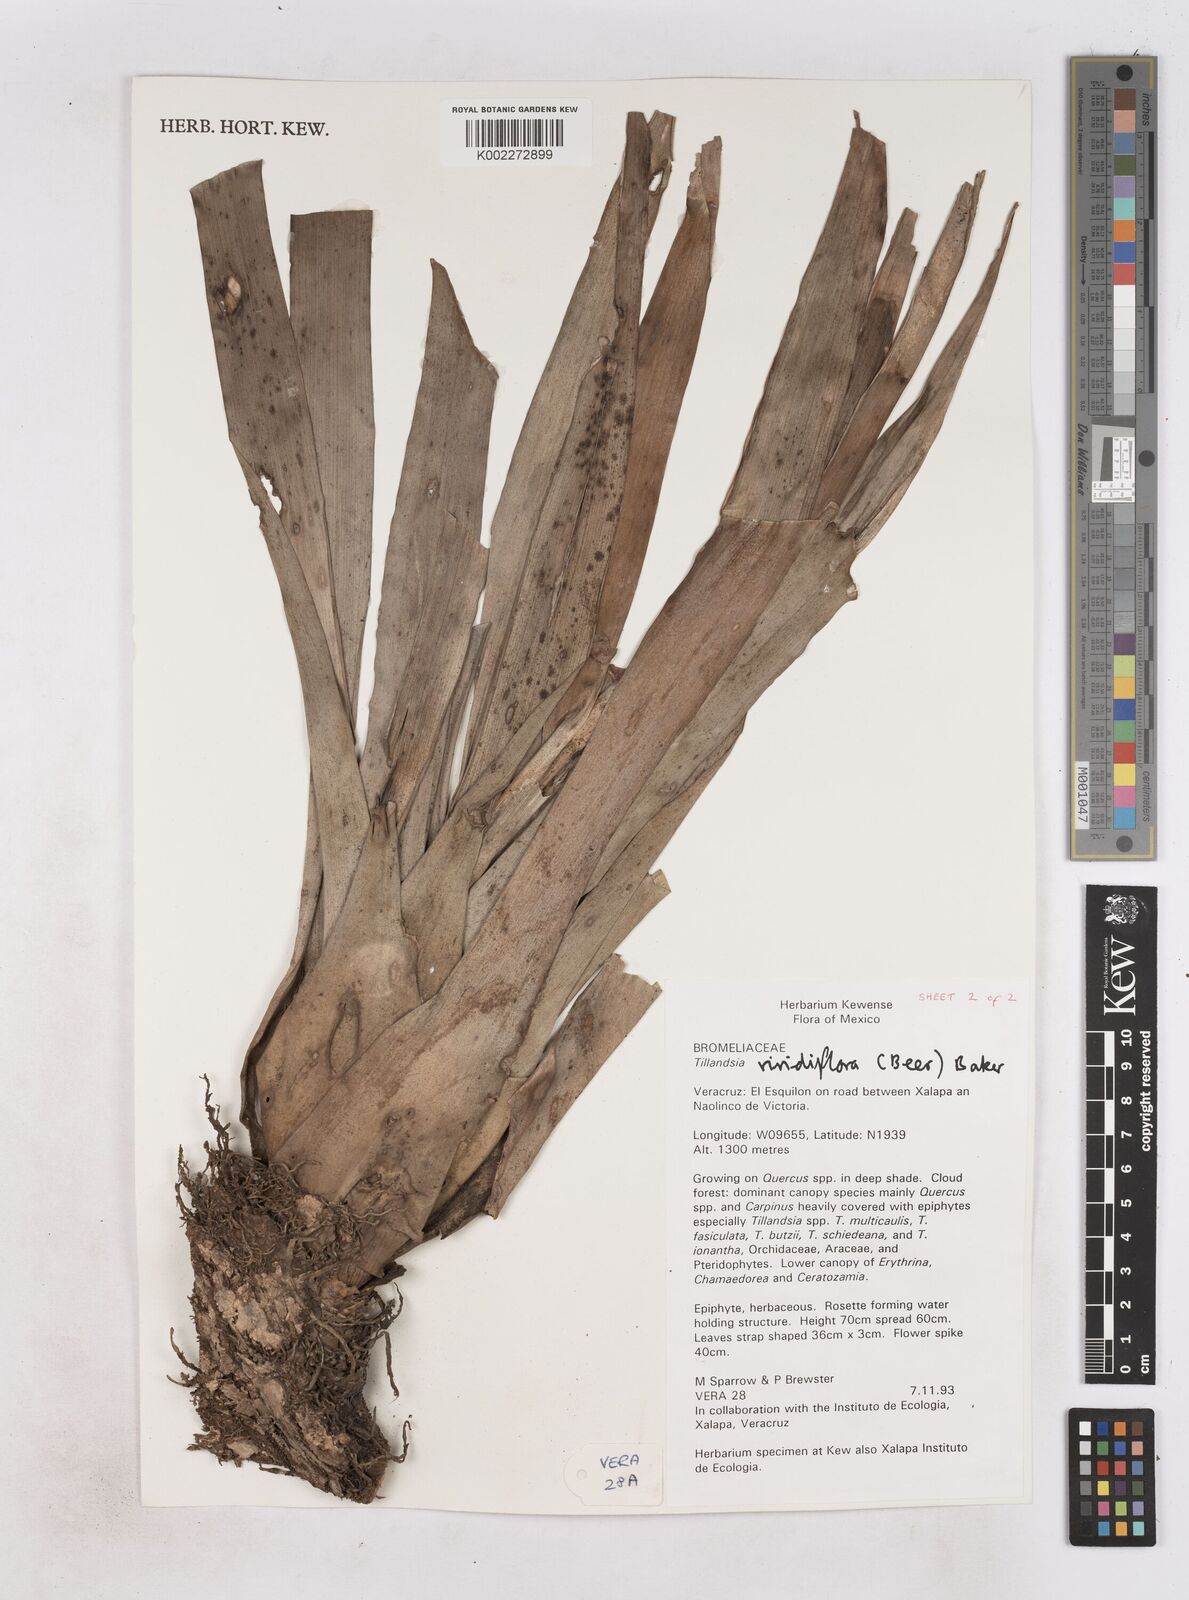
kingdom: Plantae
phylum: Tracheophyta
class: Liliopsida
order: Poales
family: Bromeliaceae
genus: Pseudalcantarea
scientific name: Pseudalcantarea viridiflora
